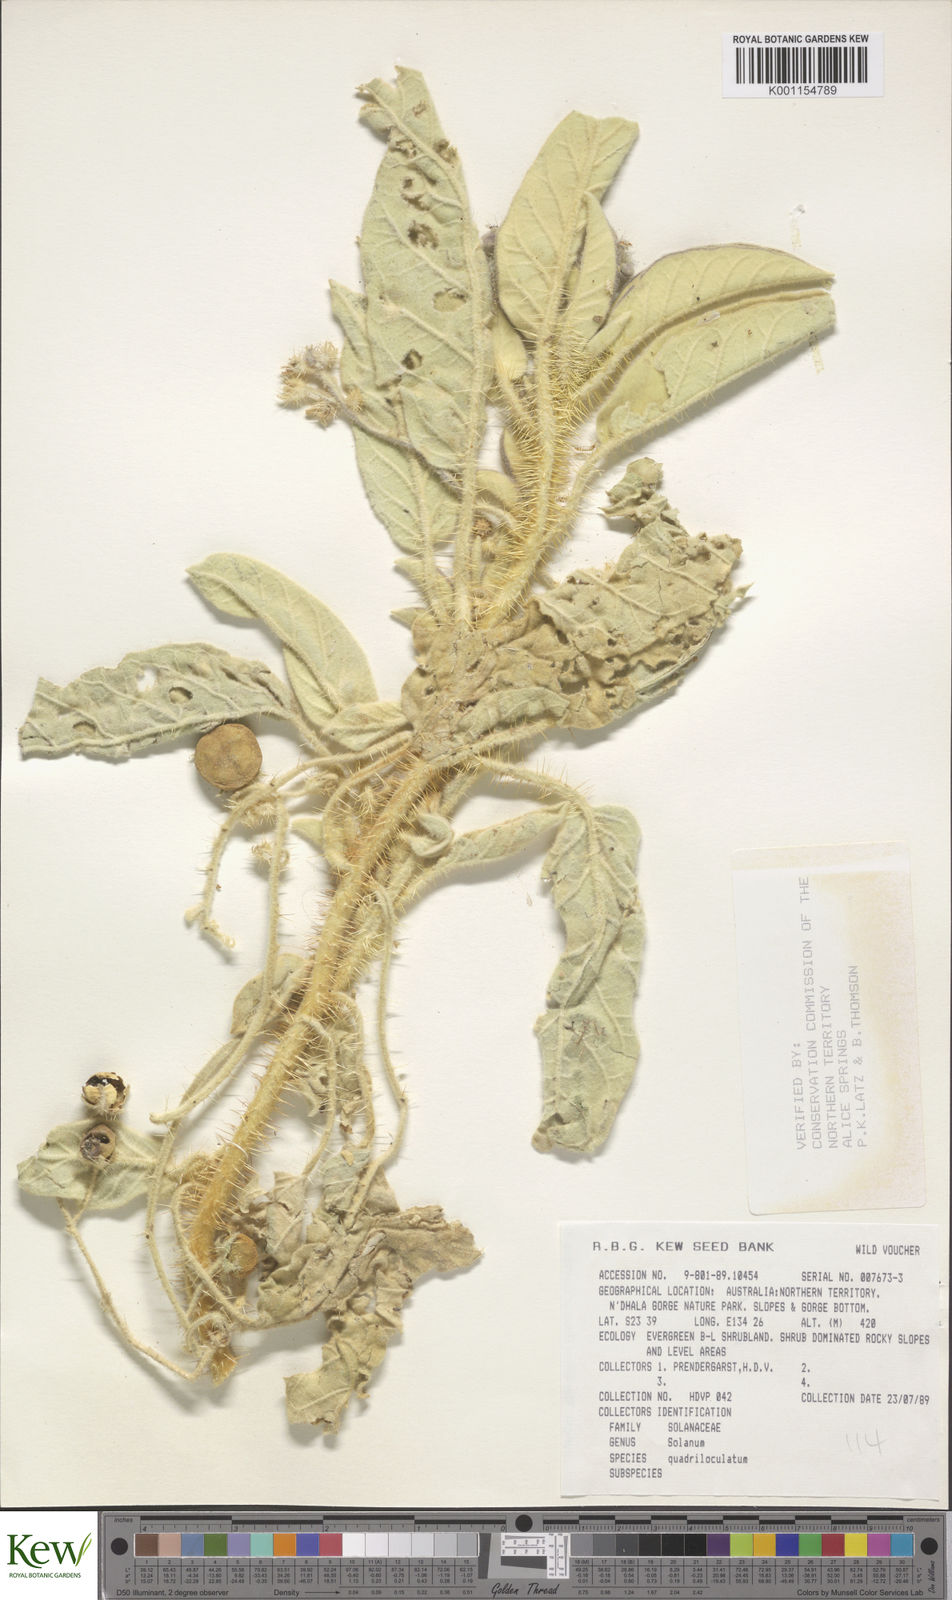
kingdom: Plantae
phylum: Tracheophyta
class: Magnoliopsida
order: Solanales
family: Solanaceae
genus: Solanum
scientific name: Solanum quadriloculatum
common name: Wild tomato
